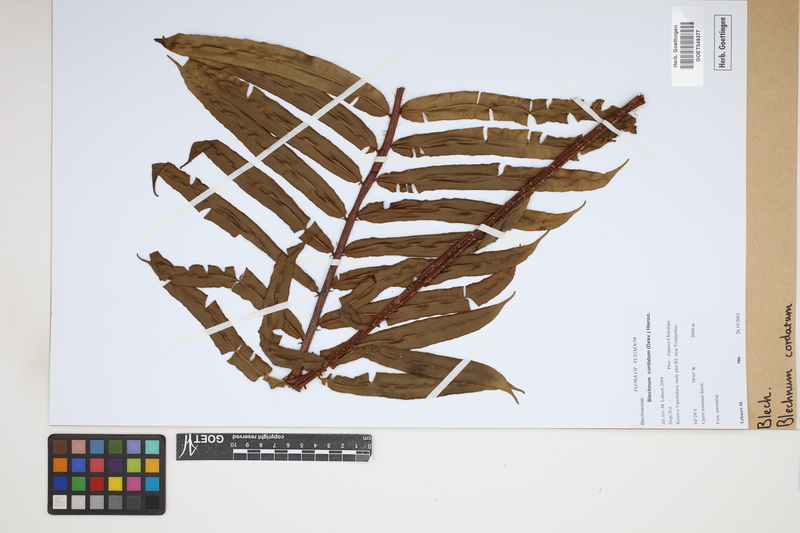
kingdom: Plantae
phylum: Tracheophyta
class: Polypodiopsida
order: Polypodiales
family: Blechnaceae
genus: Parablechnum
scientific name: Parablechnum cordatum
